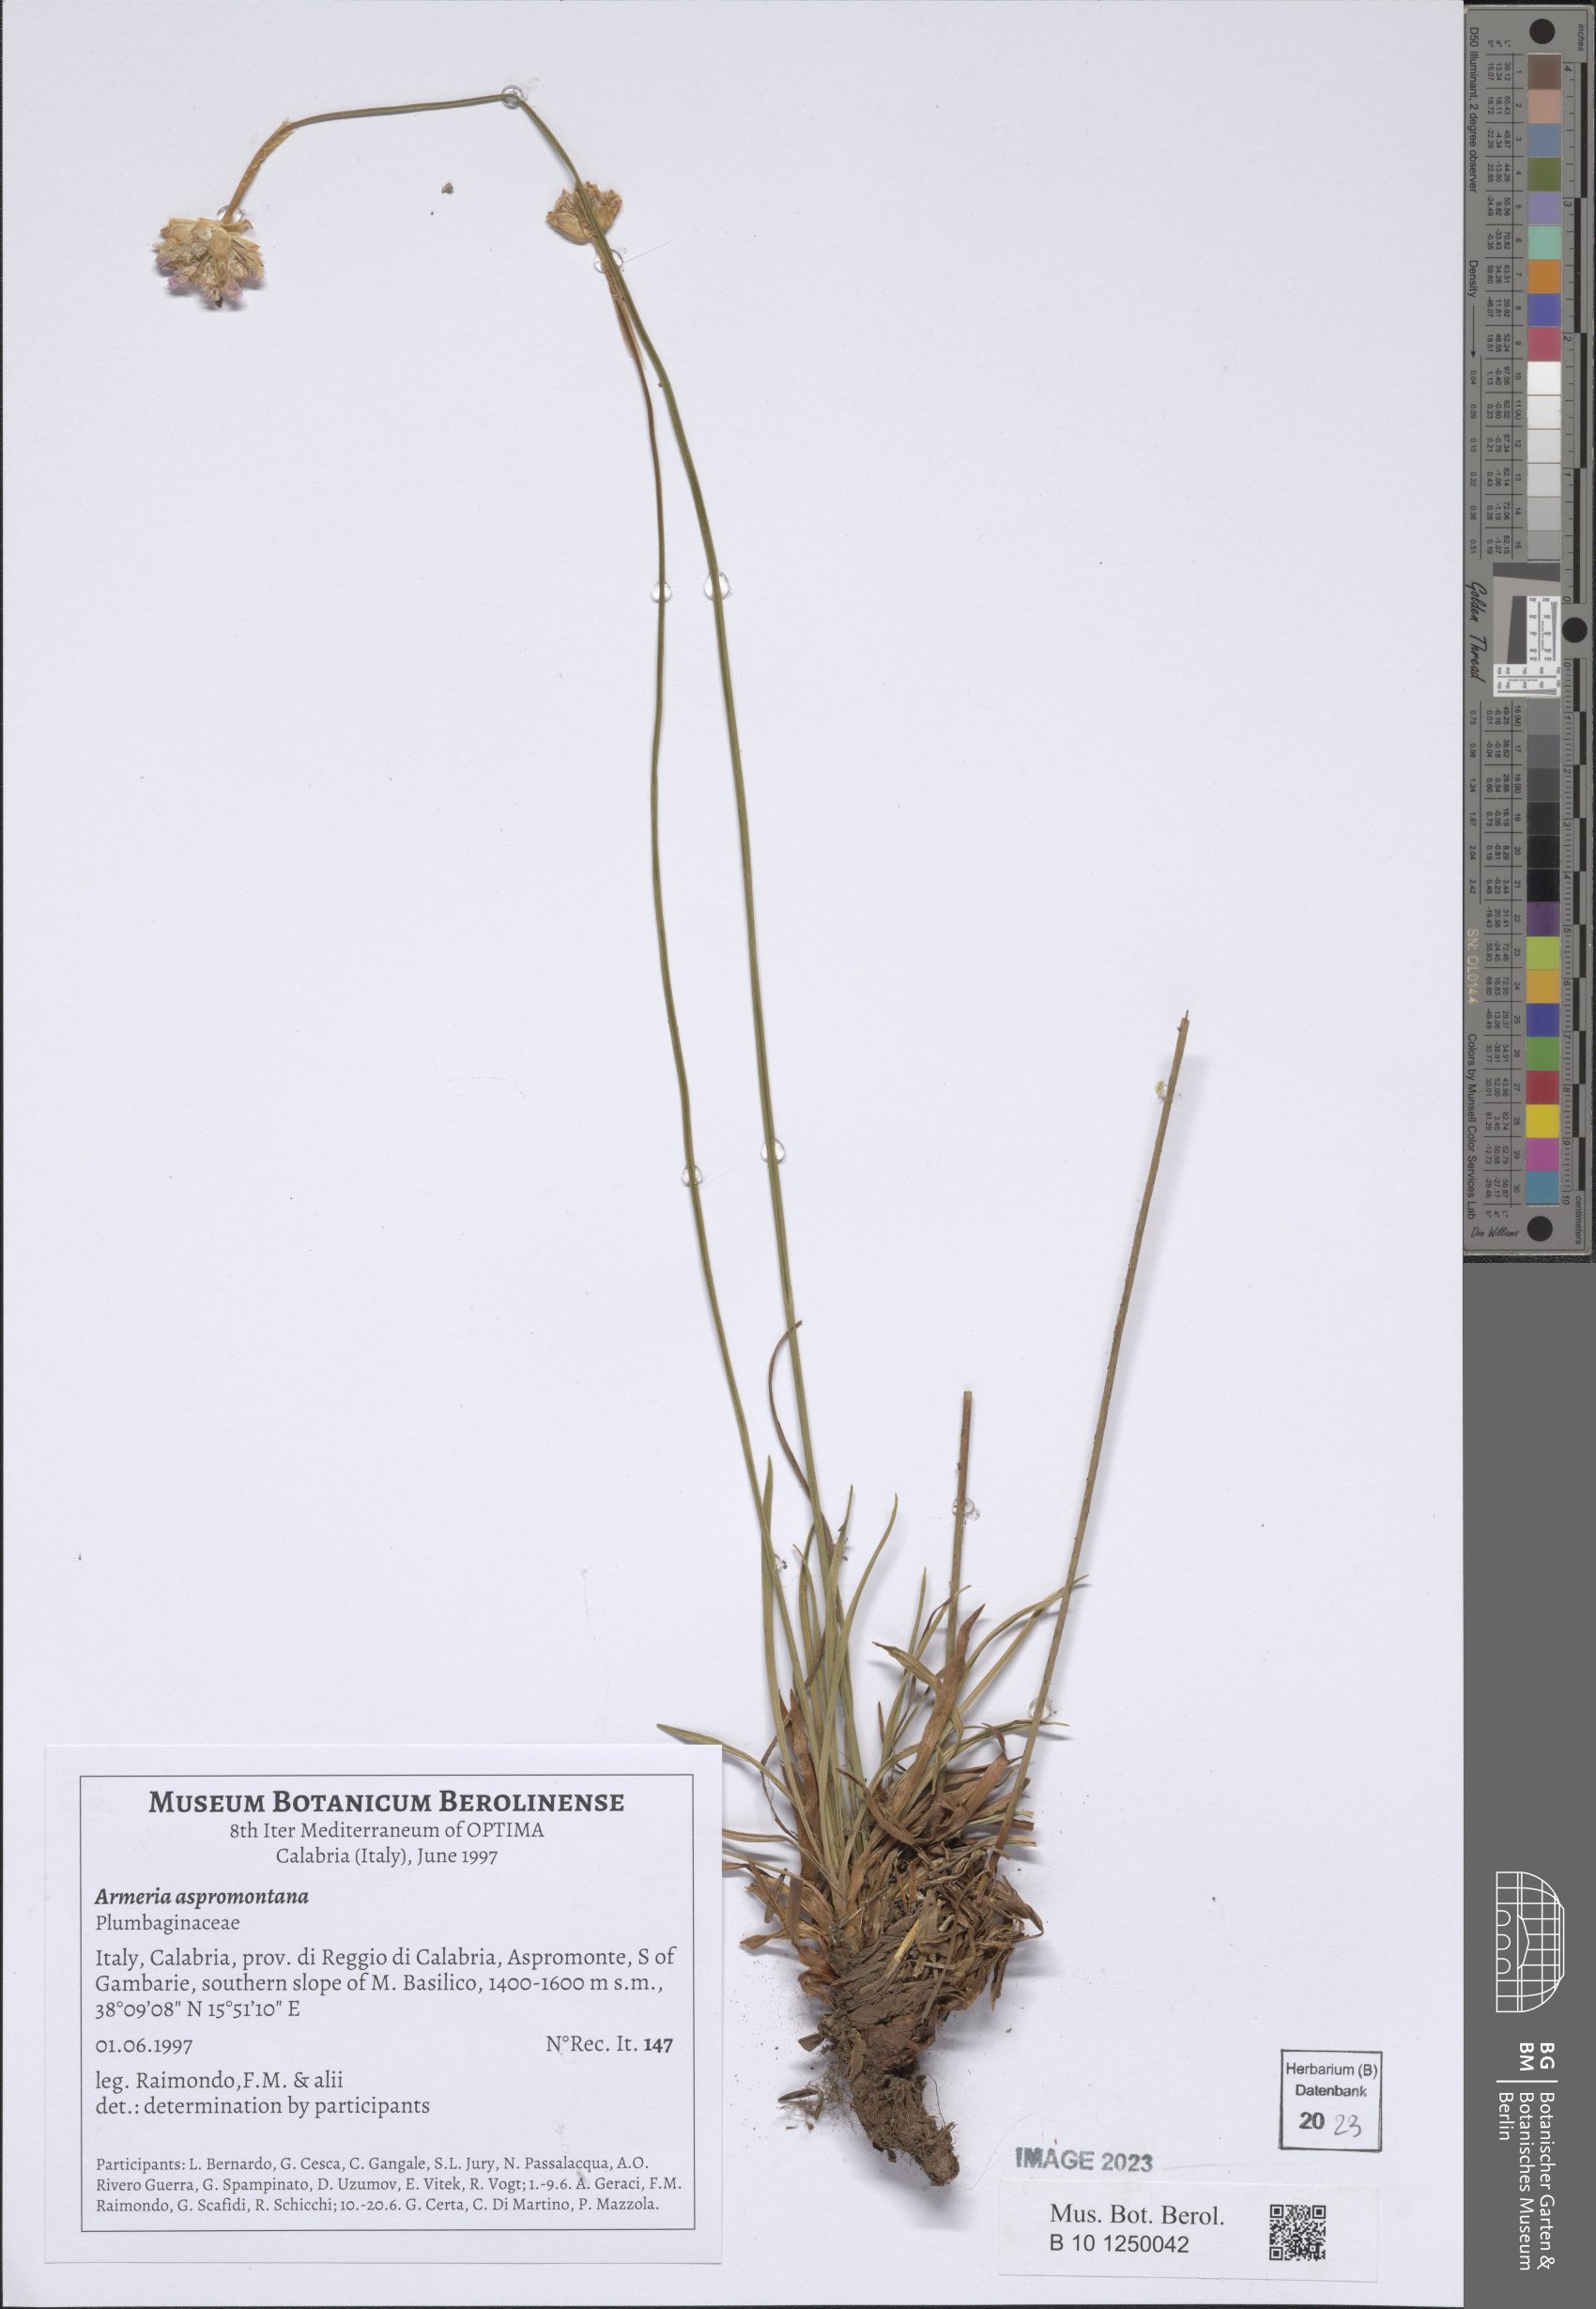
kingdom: Plantae
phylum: Tracheophyta
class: Magnoliopsida
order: Caryophyllales
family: Plumbaginaceae
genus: Armeria
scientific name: Armeria aspromontana
